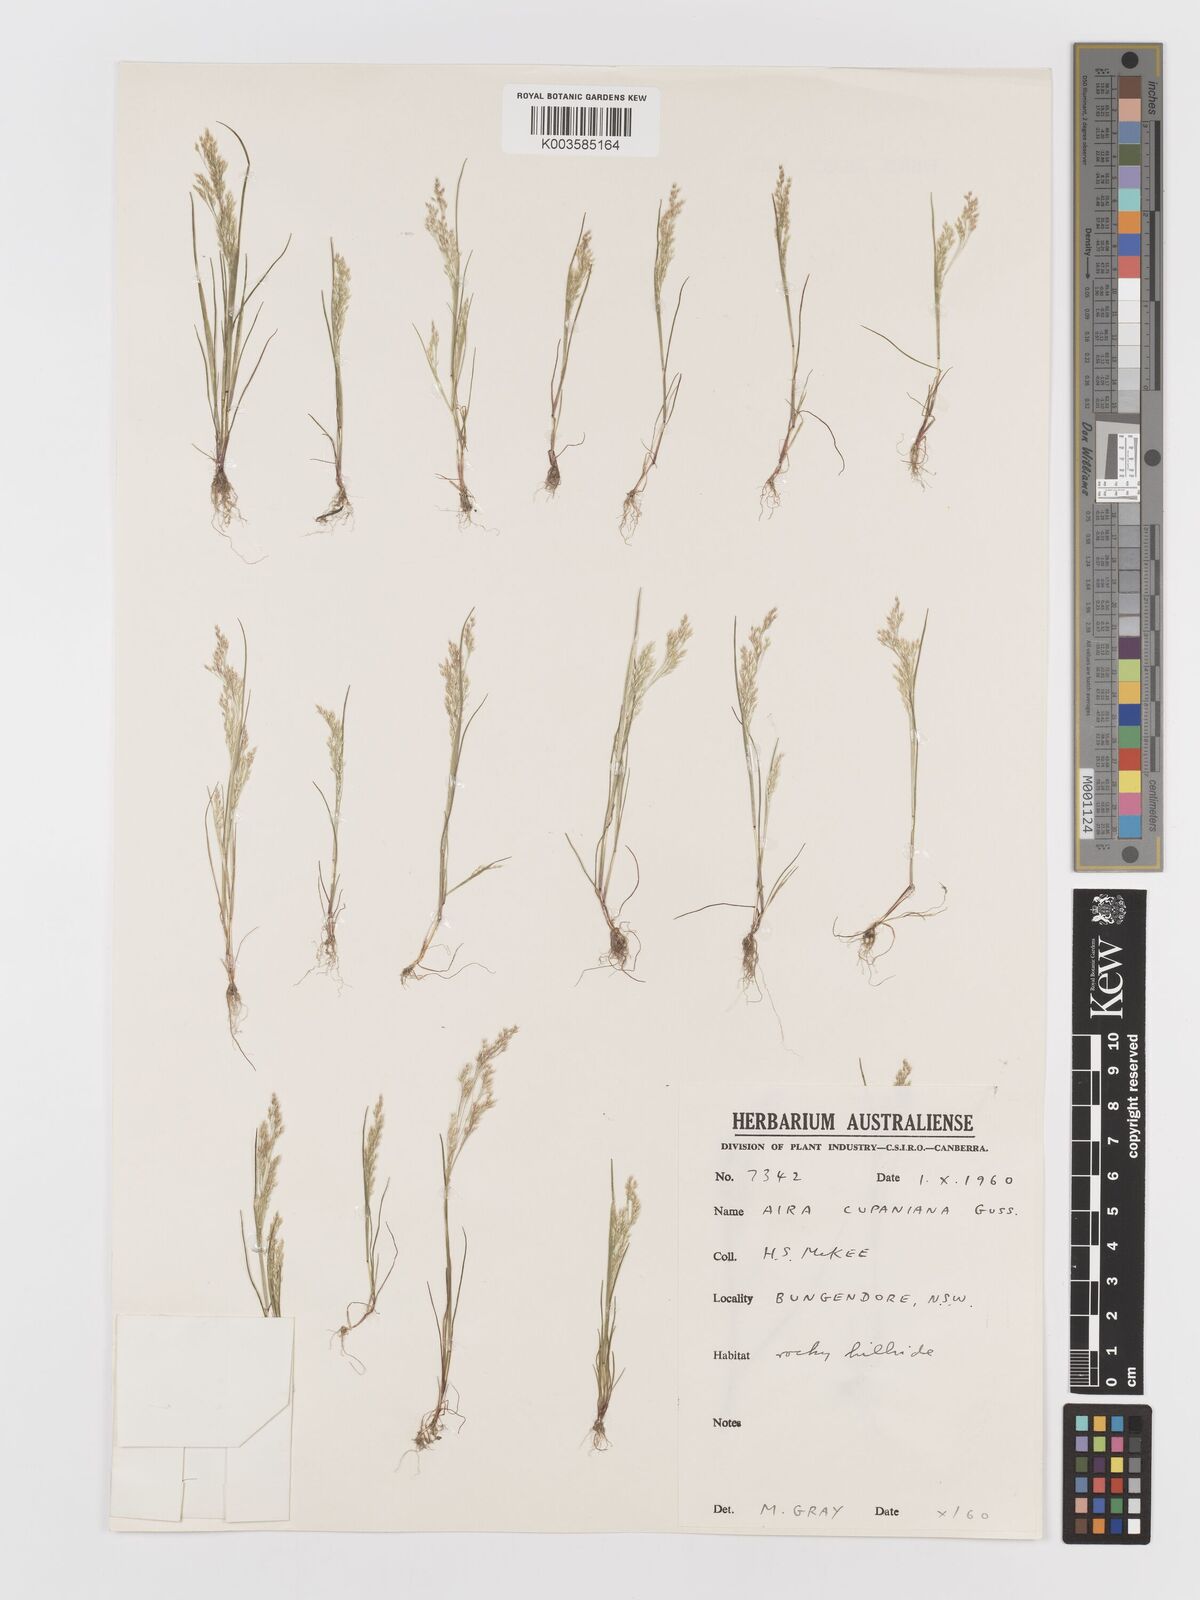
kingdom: Plantae
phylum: Tracheophyta
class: Liliopsida
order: Poales
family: Poaceae
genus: Aira
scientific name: Aira elegans
